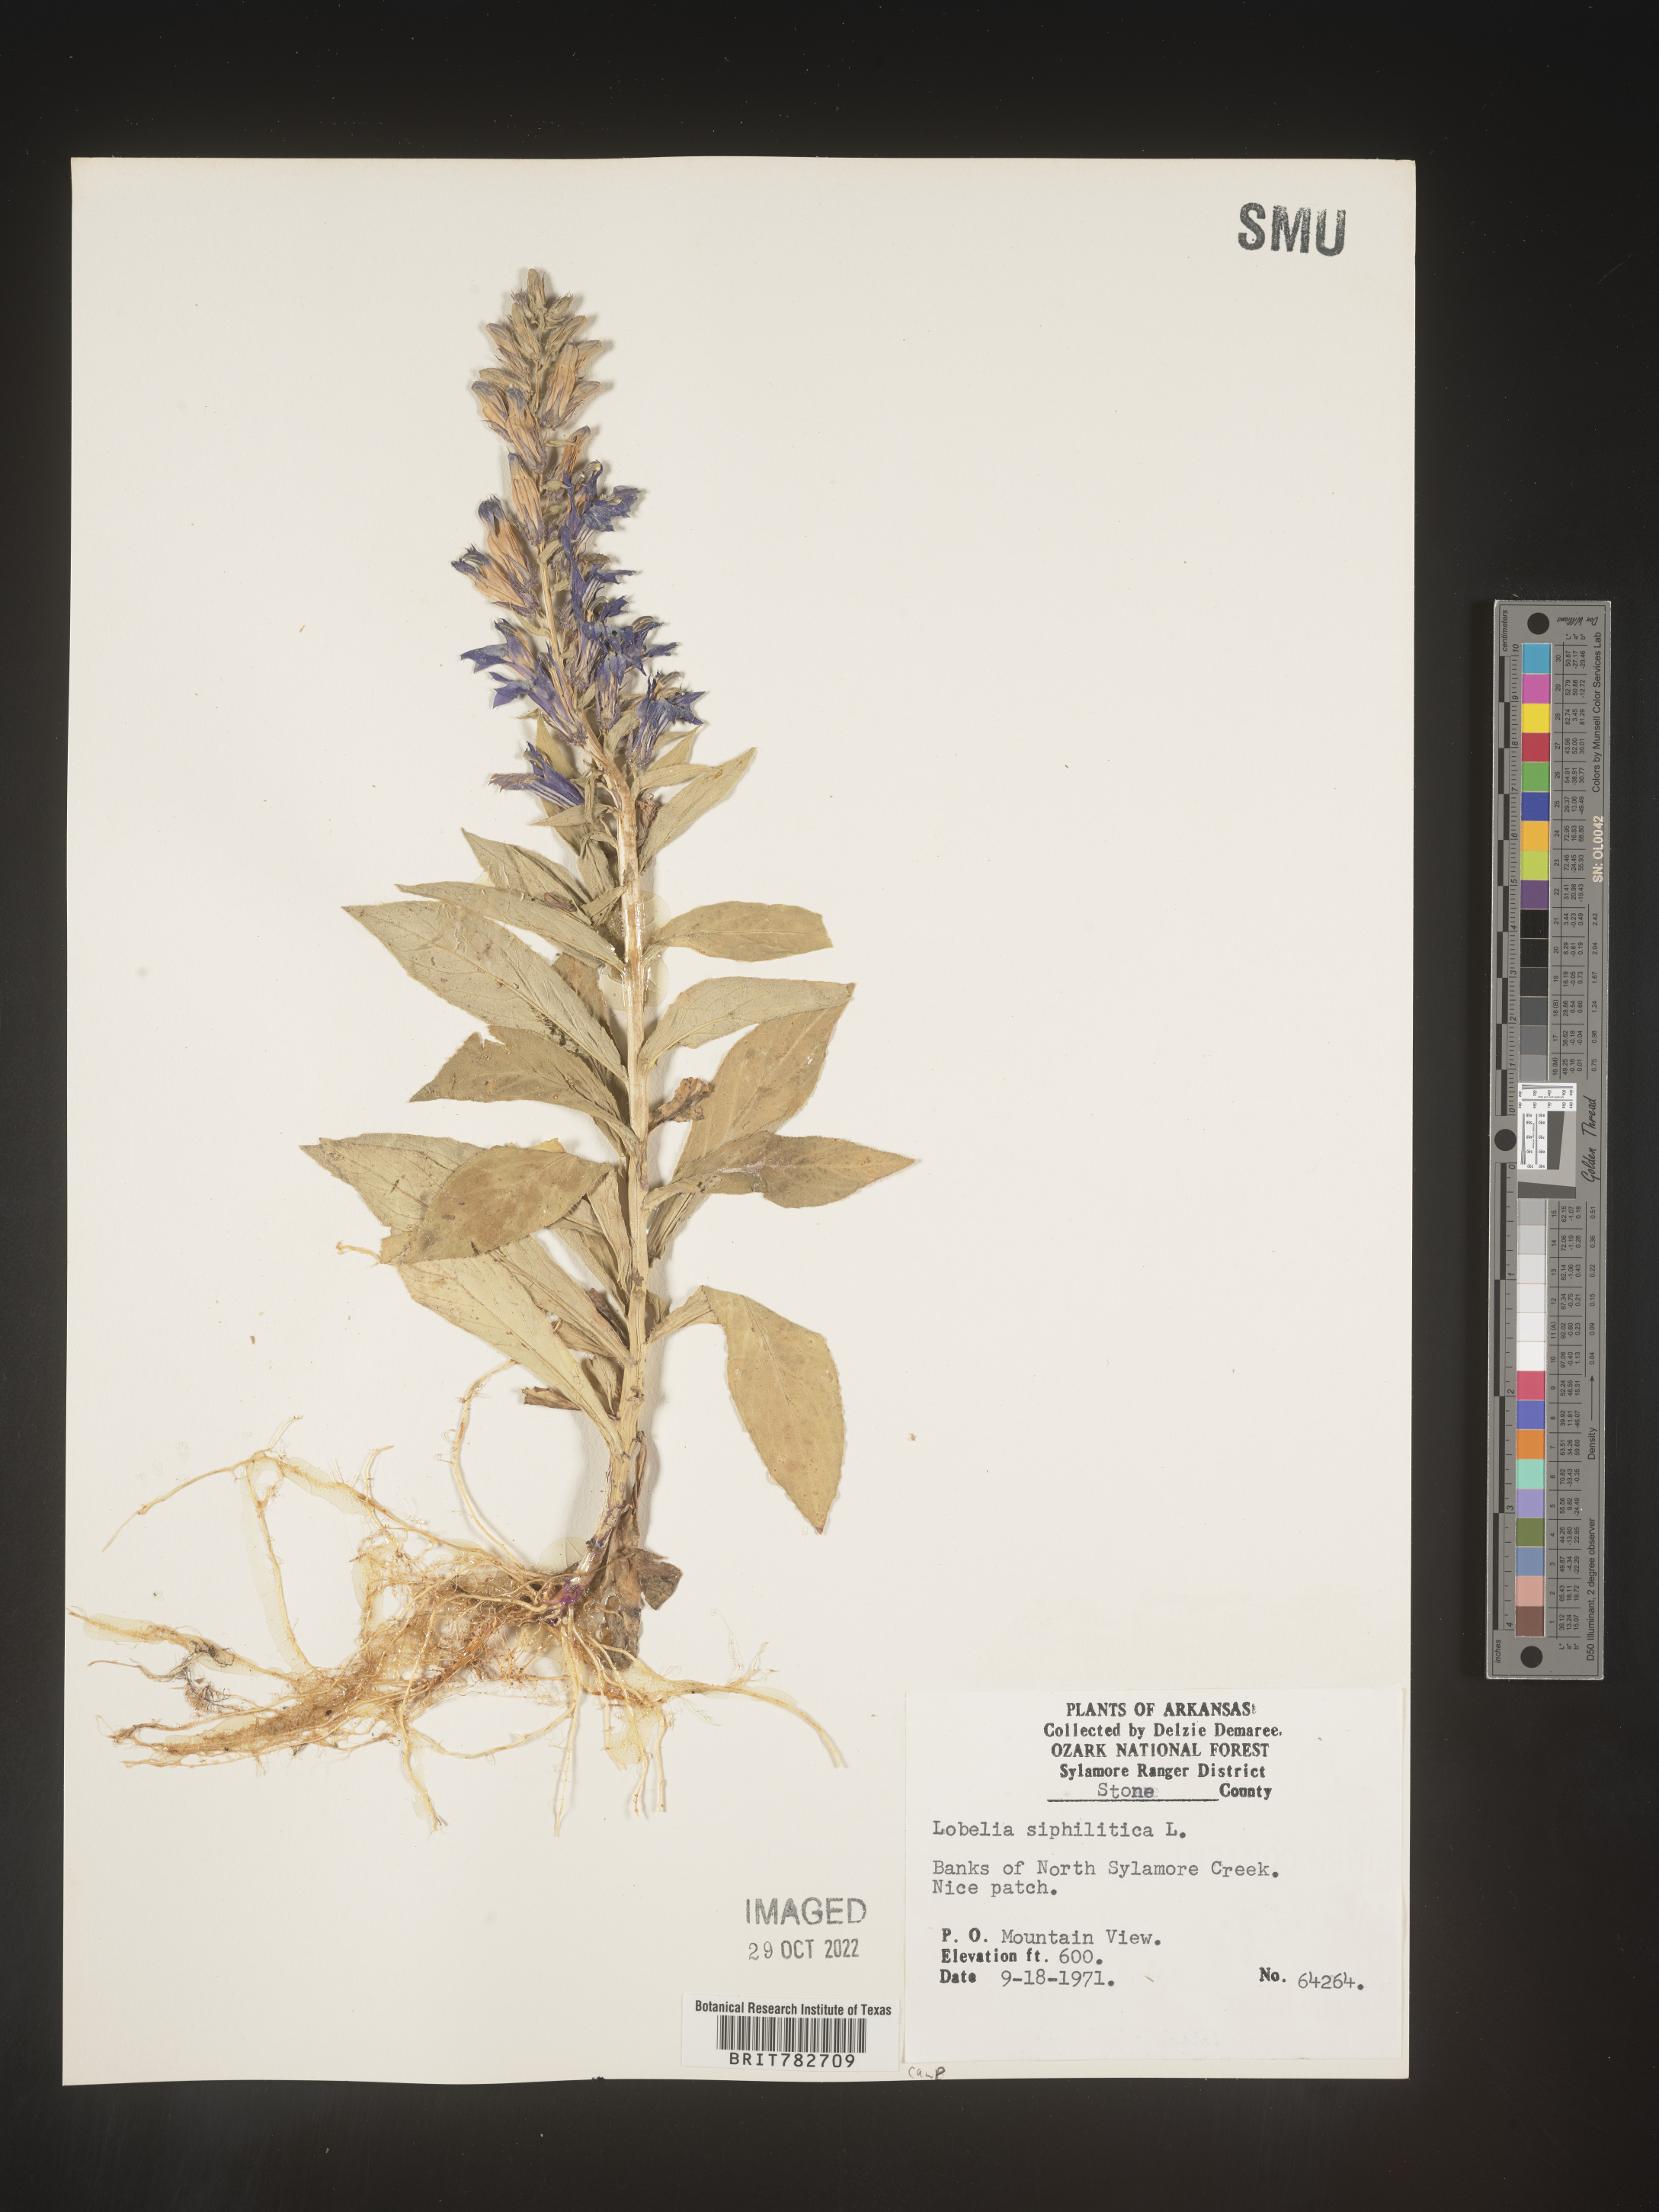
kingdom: Plantae
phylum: Tracheophyta
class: Magnoliopsida
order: Asterales
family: Campanulaceae
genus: Lobelia
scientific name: Lobelia siphilitica
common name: Great lobelia
